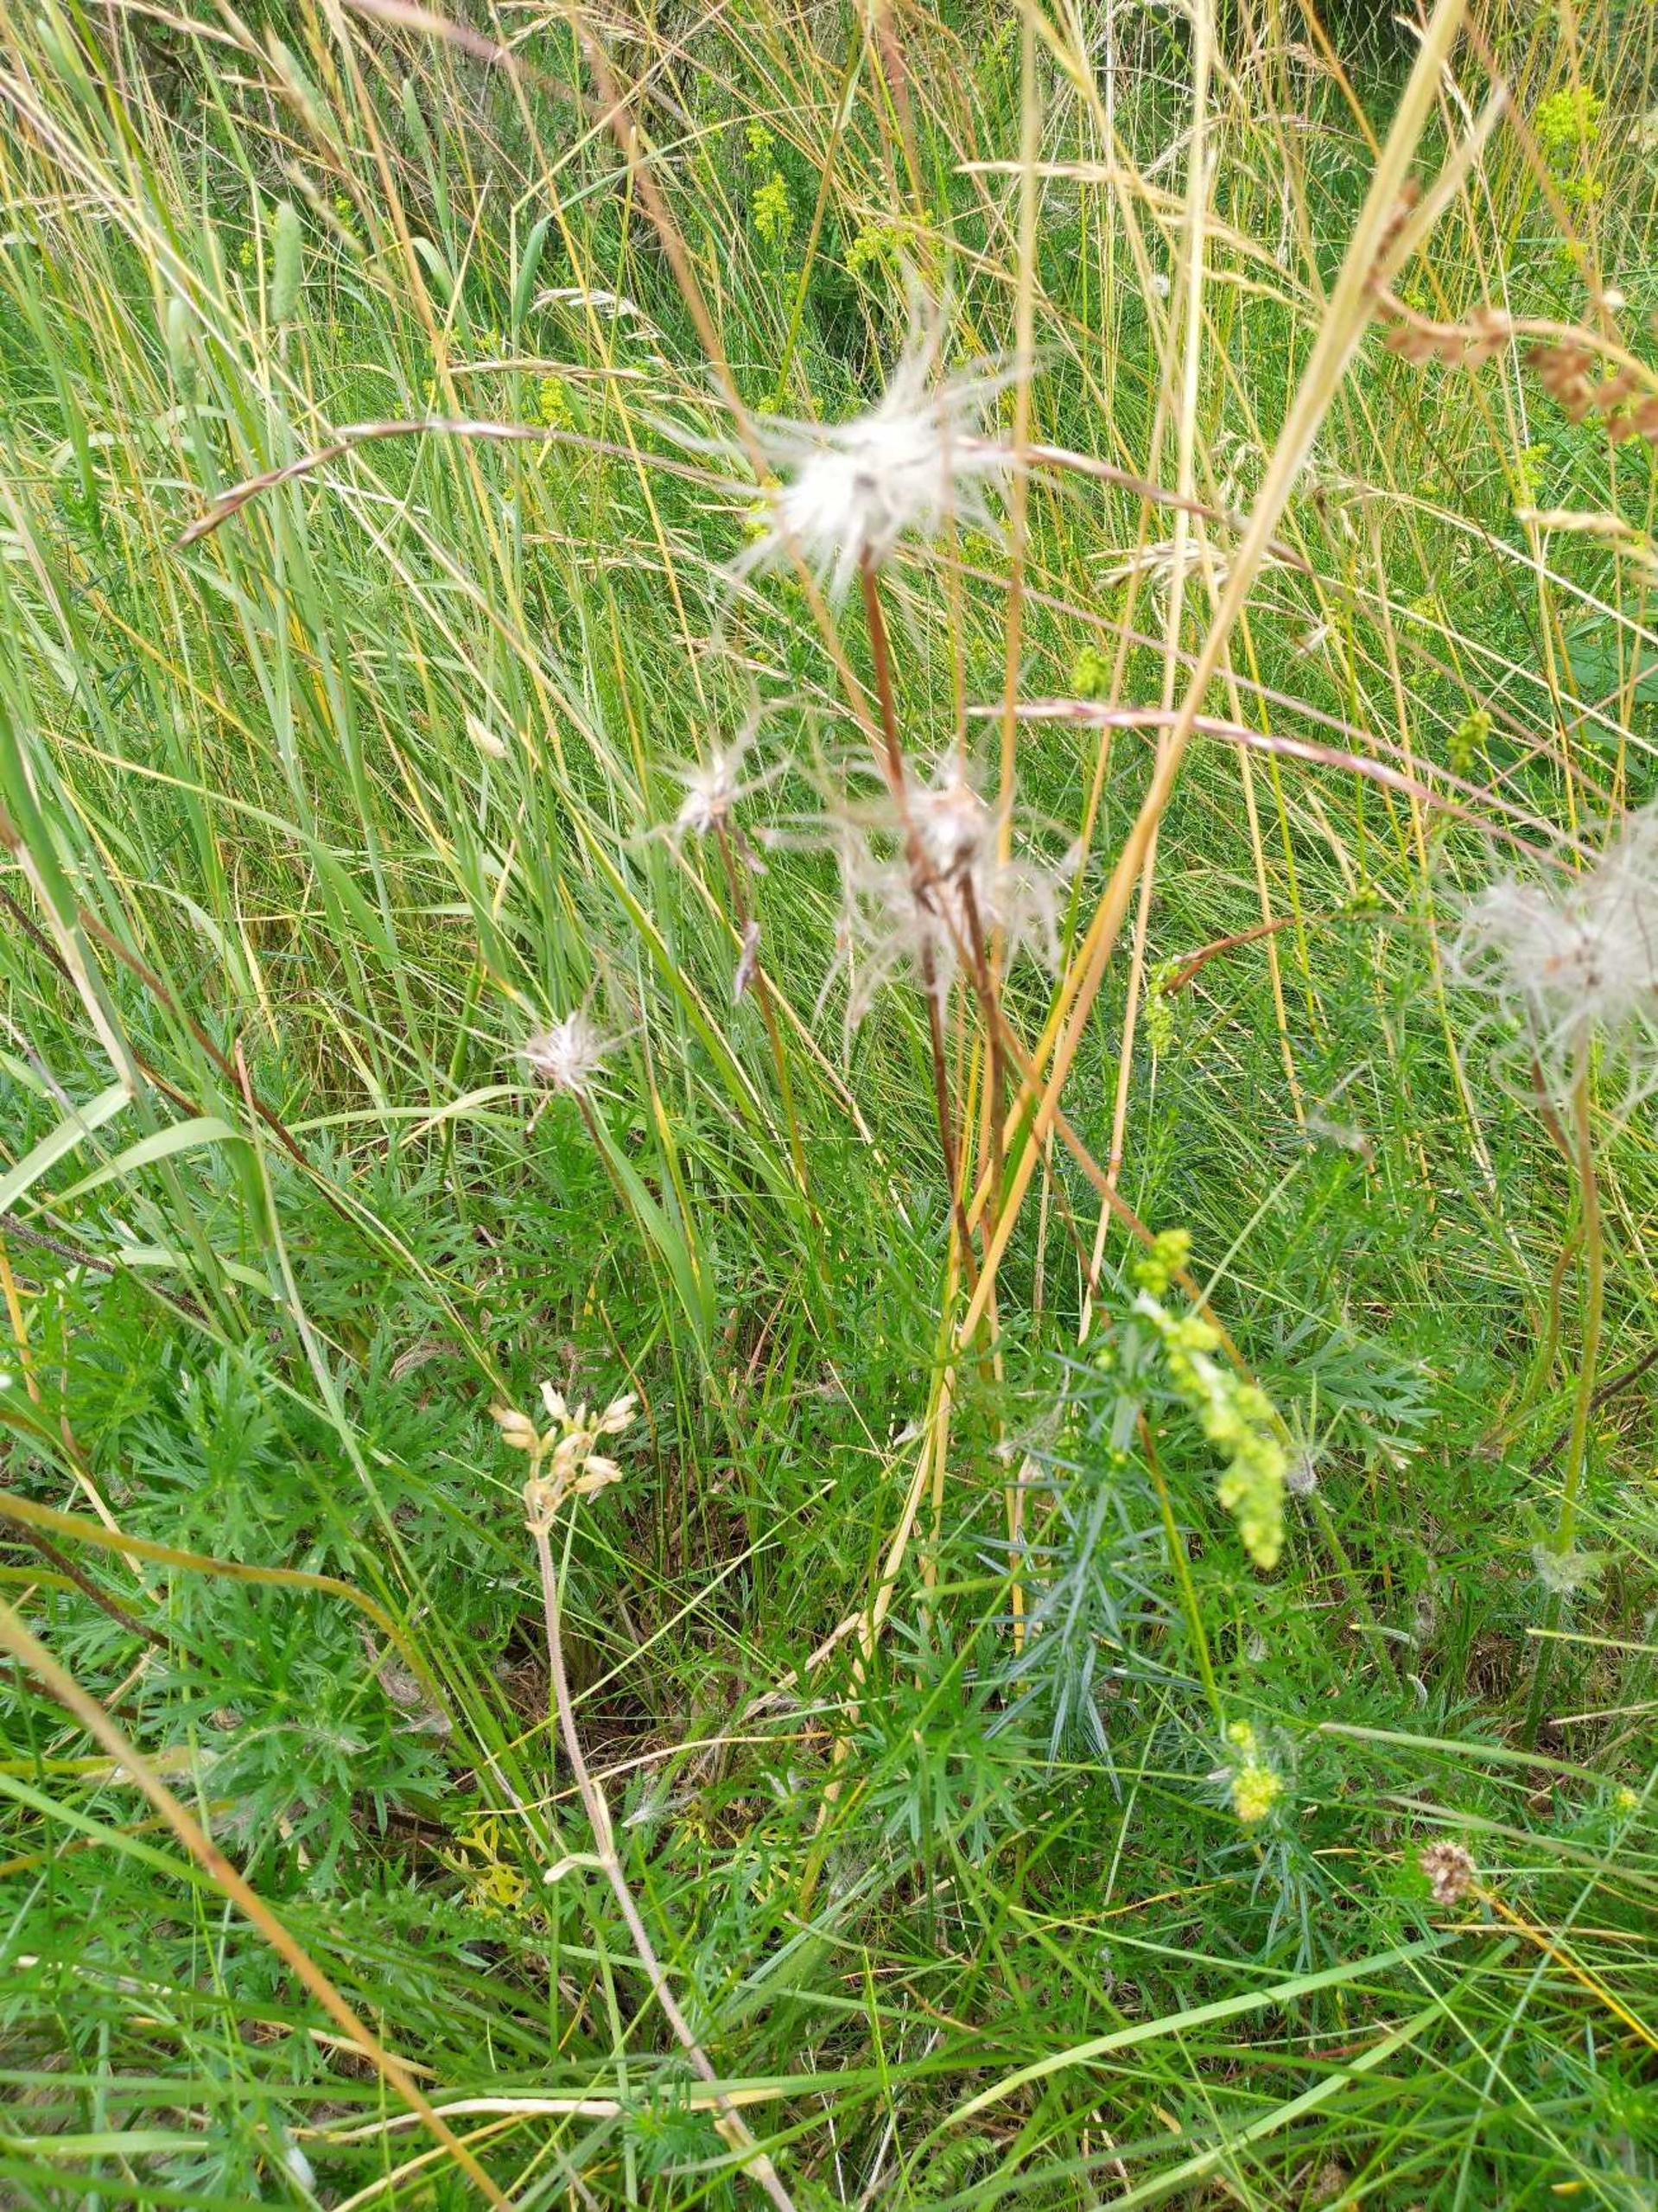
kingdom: Plantae
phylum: Tracheophyta
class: Magnoliopsida
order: Ranunculales
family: Ranunculaceae
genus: Pulsatilla
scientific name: Pulsatilla vulgaris
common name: Opret kobjælde
